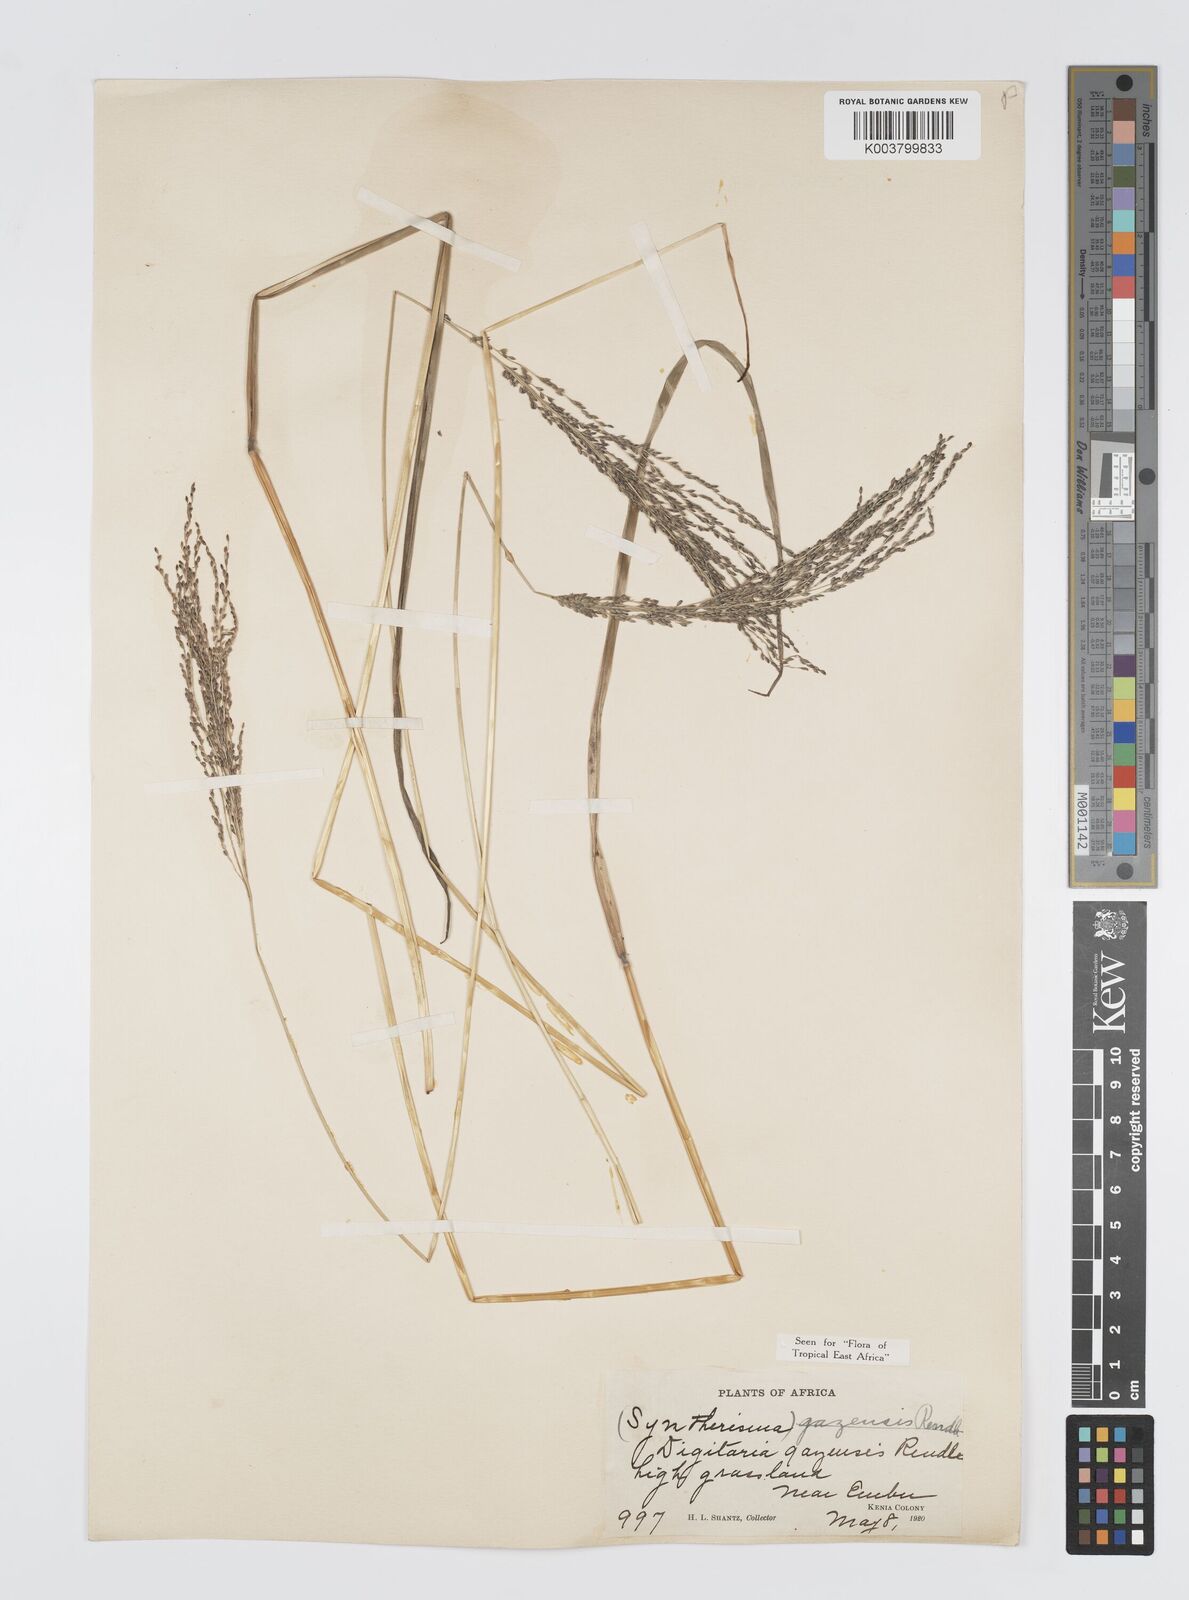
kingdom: Plantae
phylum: Tracheophyta
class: Liliopsida
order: Poales
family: Poaceae
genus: Digitaria
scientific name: Digitaria gazensis
